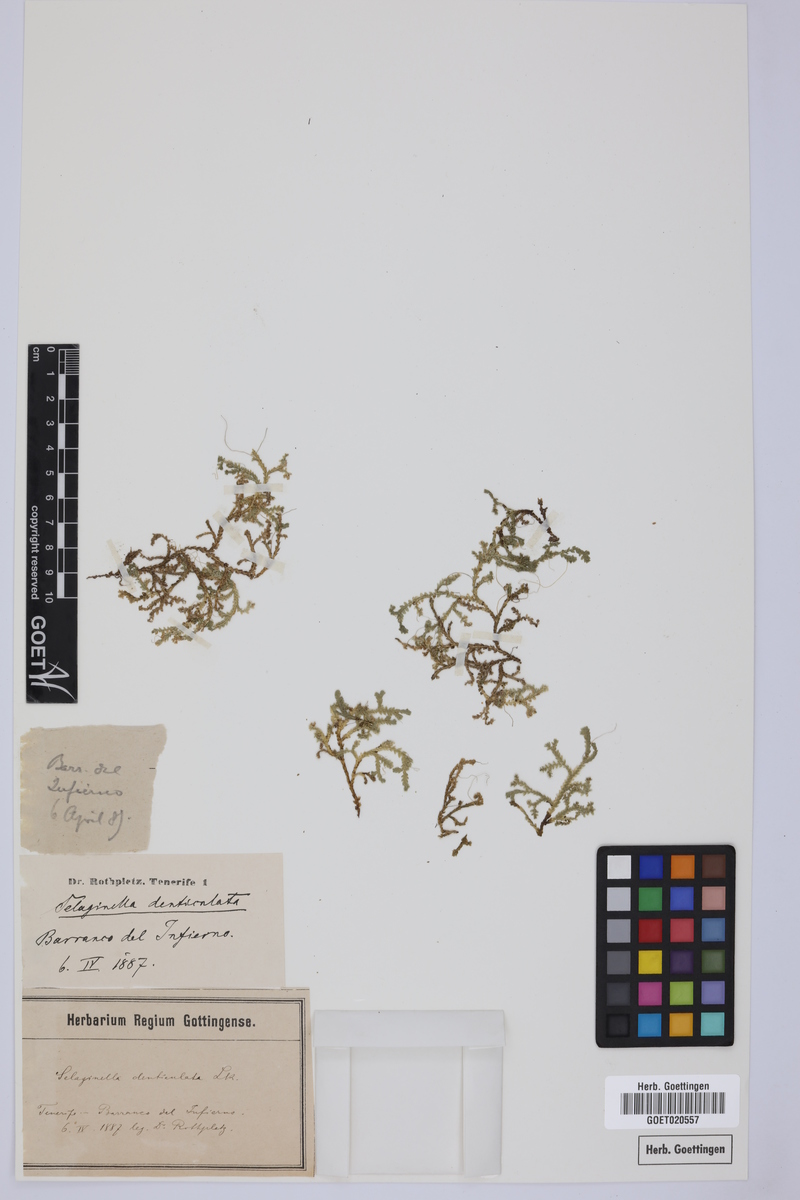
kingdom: Plantae
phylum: Tracheophyta
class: Lycopodiopsida
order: Selaginellales
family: Selaginellaceae
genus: Selaginella
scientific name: Selaginella denticulata
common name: Toothed-leaved clubmoss
